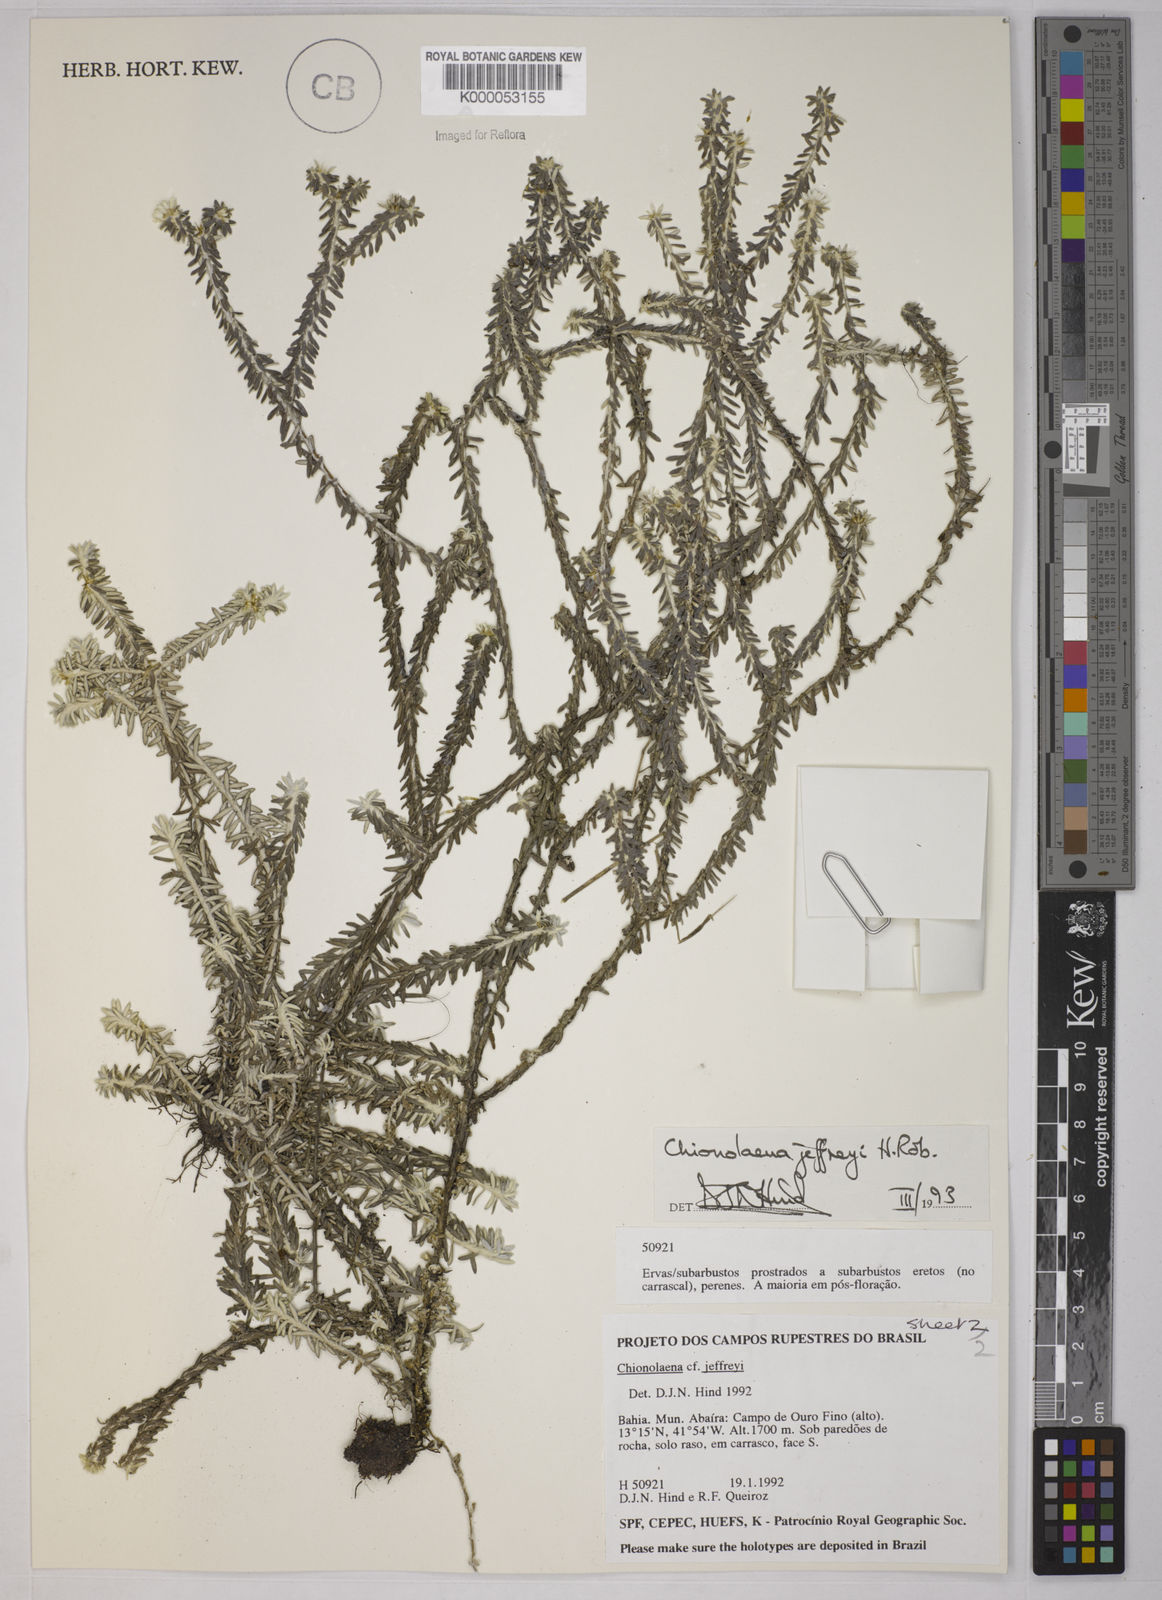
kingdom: Plantae
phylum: Tracheophyta
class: Magnoliopsida
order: Asterales
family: Asteraceae
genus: Chionolaena
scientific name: Chionolaena jeffreyi
